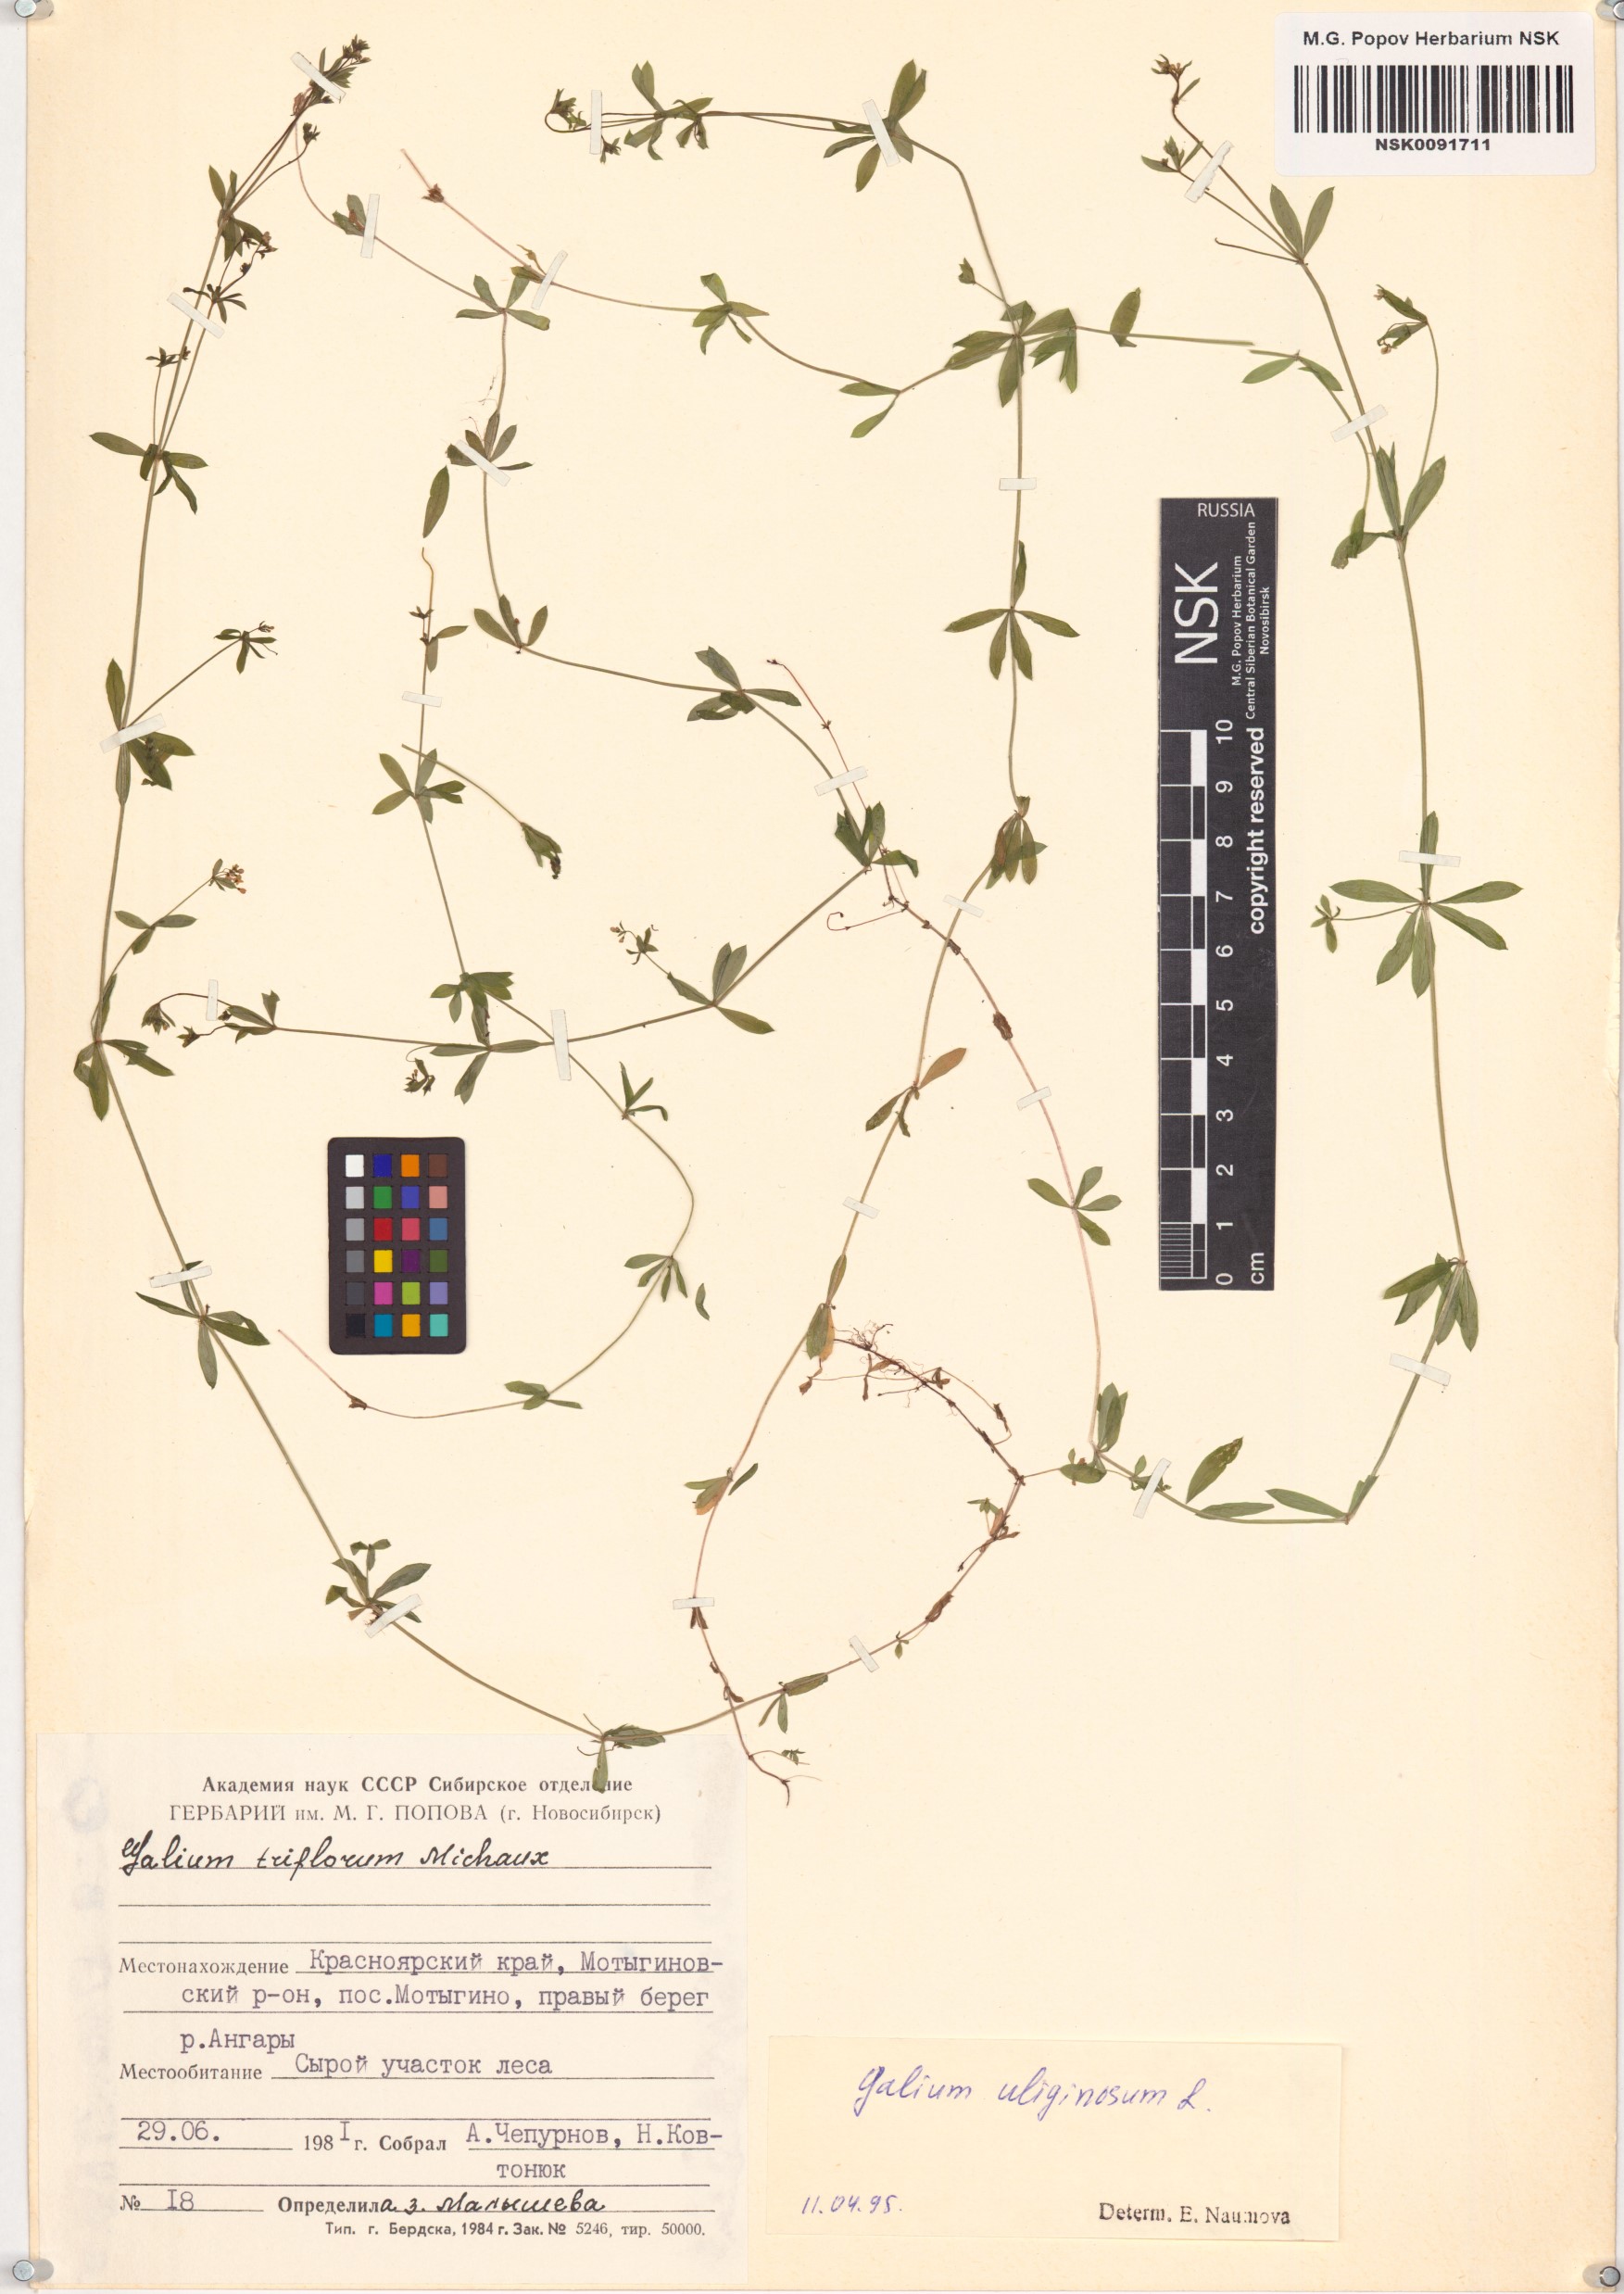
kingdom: Plantae
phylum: Tracheophyta
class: Magnoliopsida
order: Gentianales
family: Rubiaceae
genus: Galium
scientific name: Galium uliginosum
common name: Fen bedstraw
